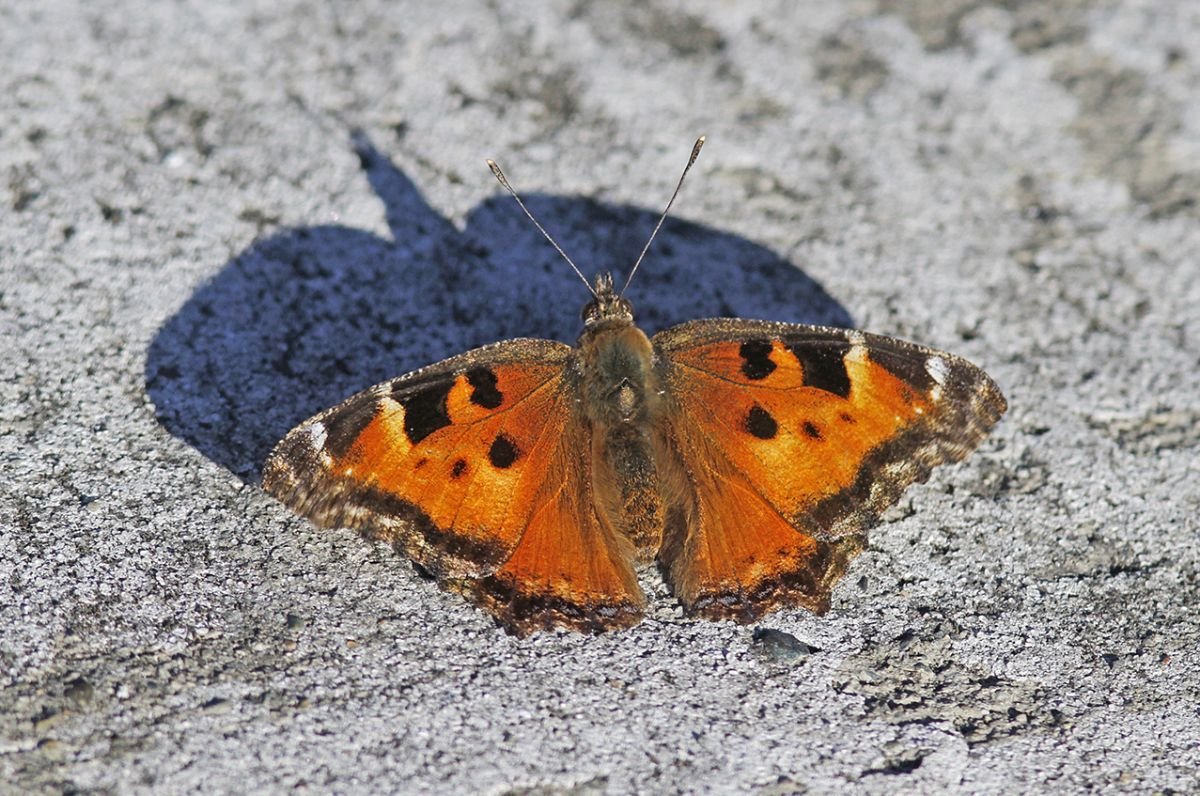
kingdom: Animalia
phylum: Arthropoda
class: Insecta
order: Lepidoptera
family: Nymphalidae
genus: Nymphalis
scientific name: Nymphalis californica
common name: California Tortoiseshell
